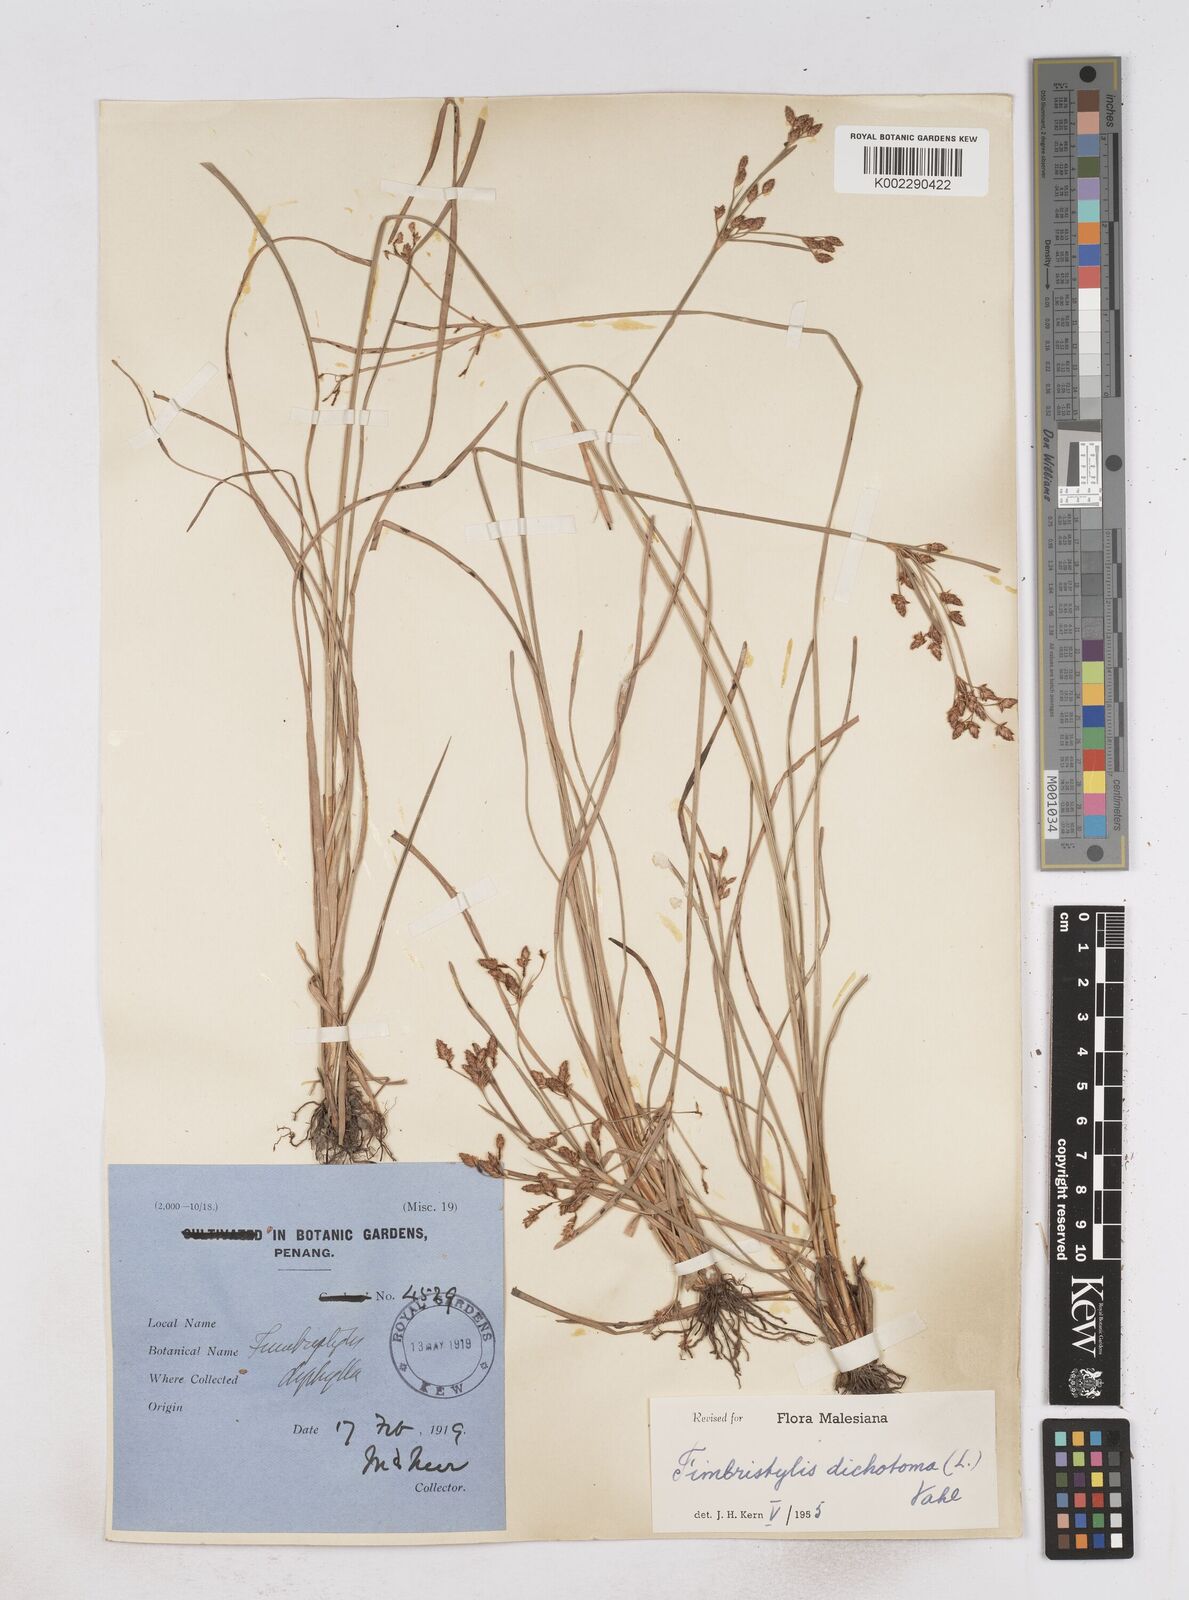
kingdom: Plantae
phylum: Tracheophyta
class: Liliopsida
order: Poales
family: Cyperaceae
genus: Fimbristylis
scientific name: Fimbristylis dichotoma
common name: Forked fimbry
